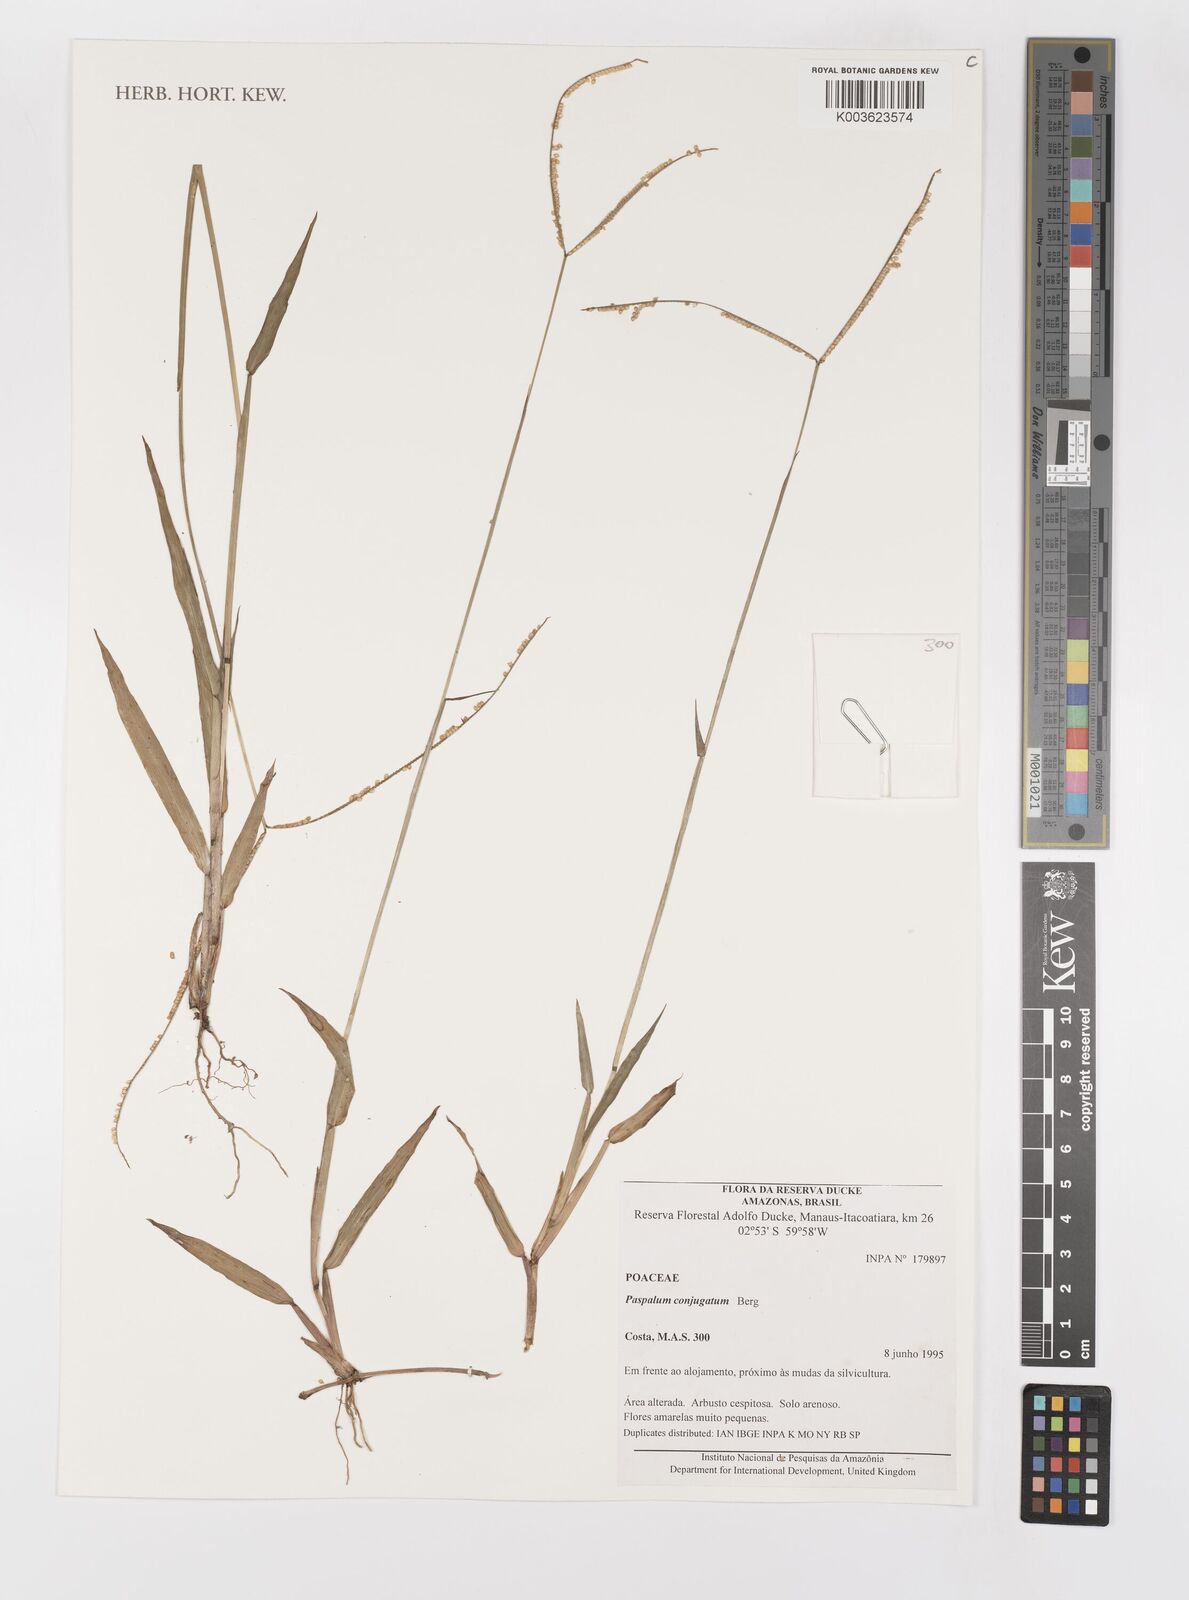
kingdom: Plantae
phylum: Tracheophyta
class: Liliopsida
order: Poales
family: Poaceae
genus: Paspalum
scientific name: Paspalum conjugatum
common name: Hilograss
